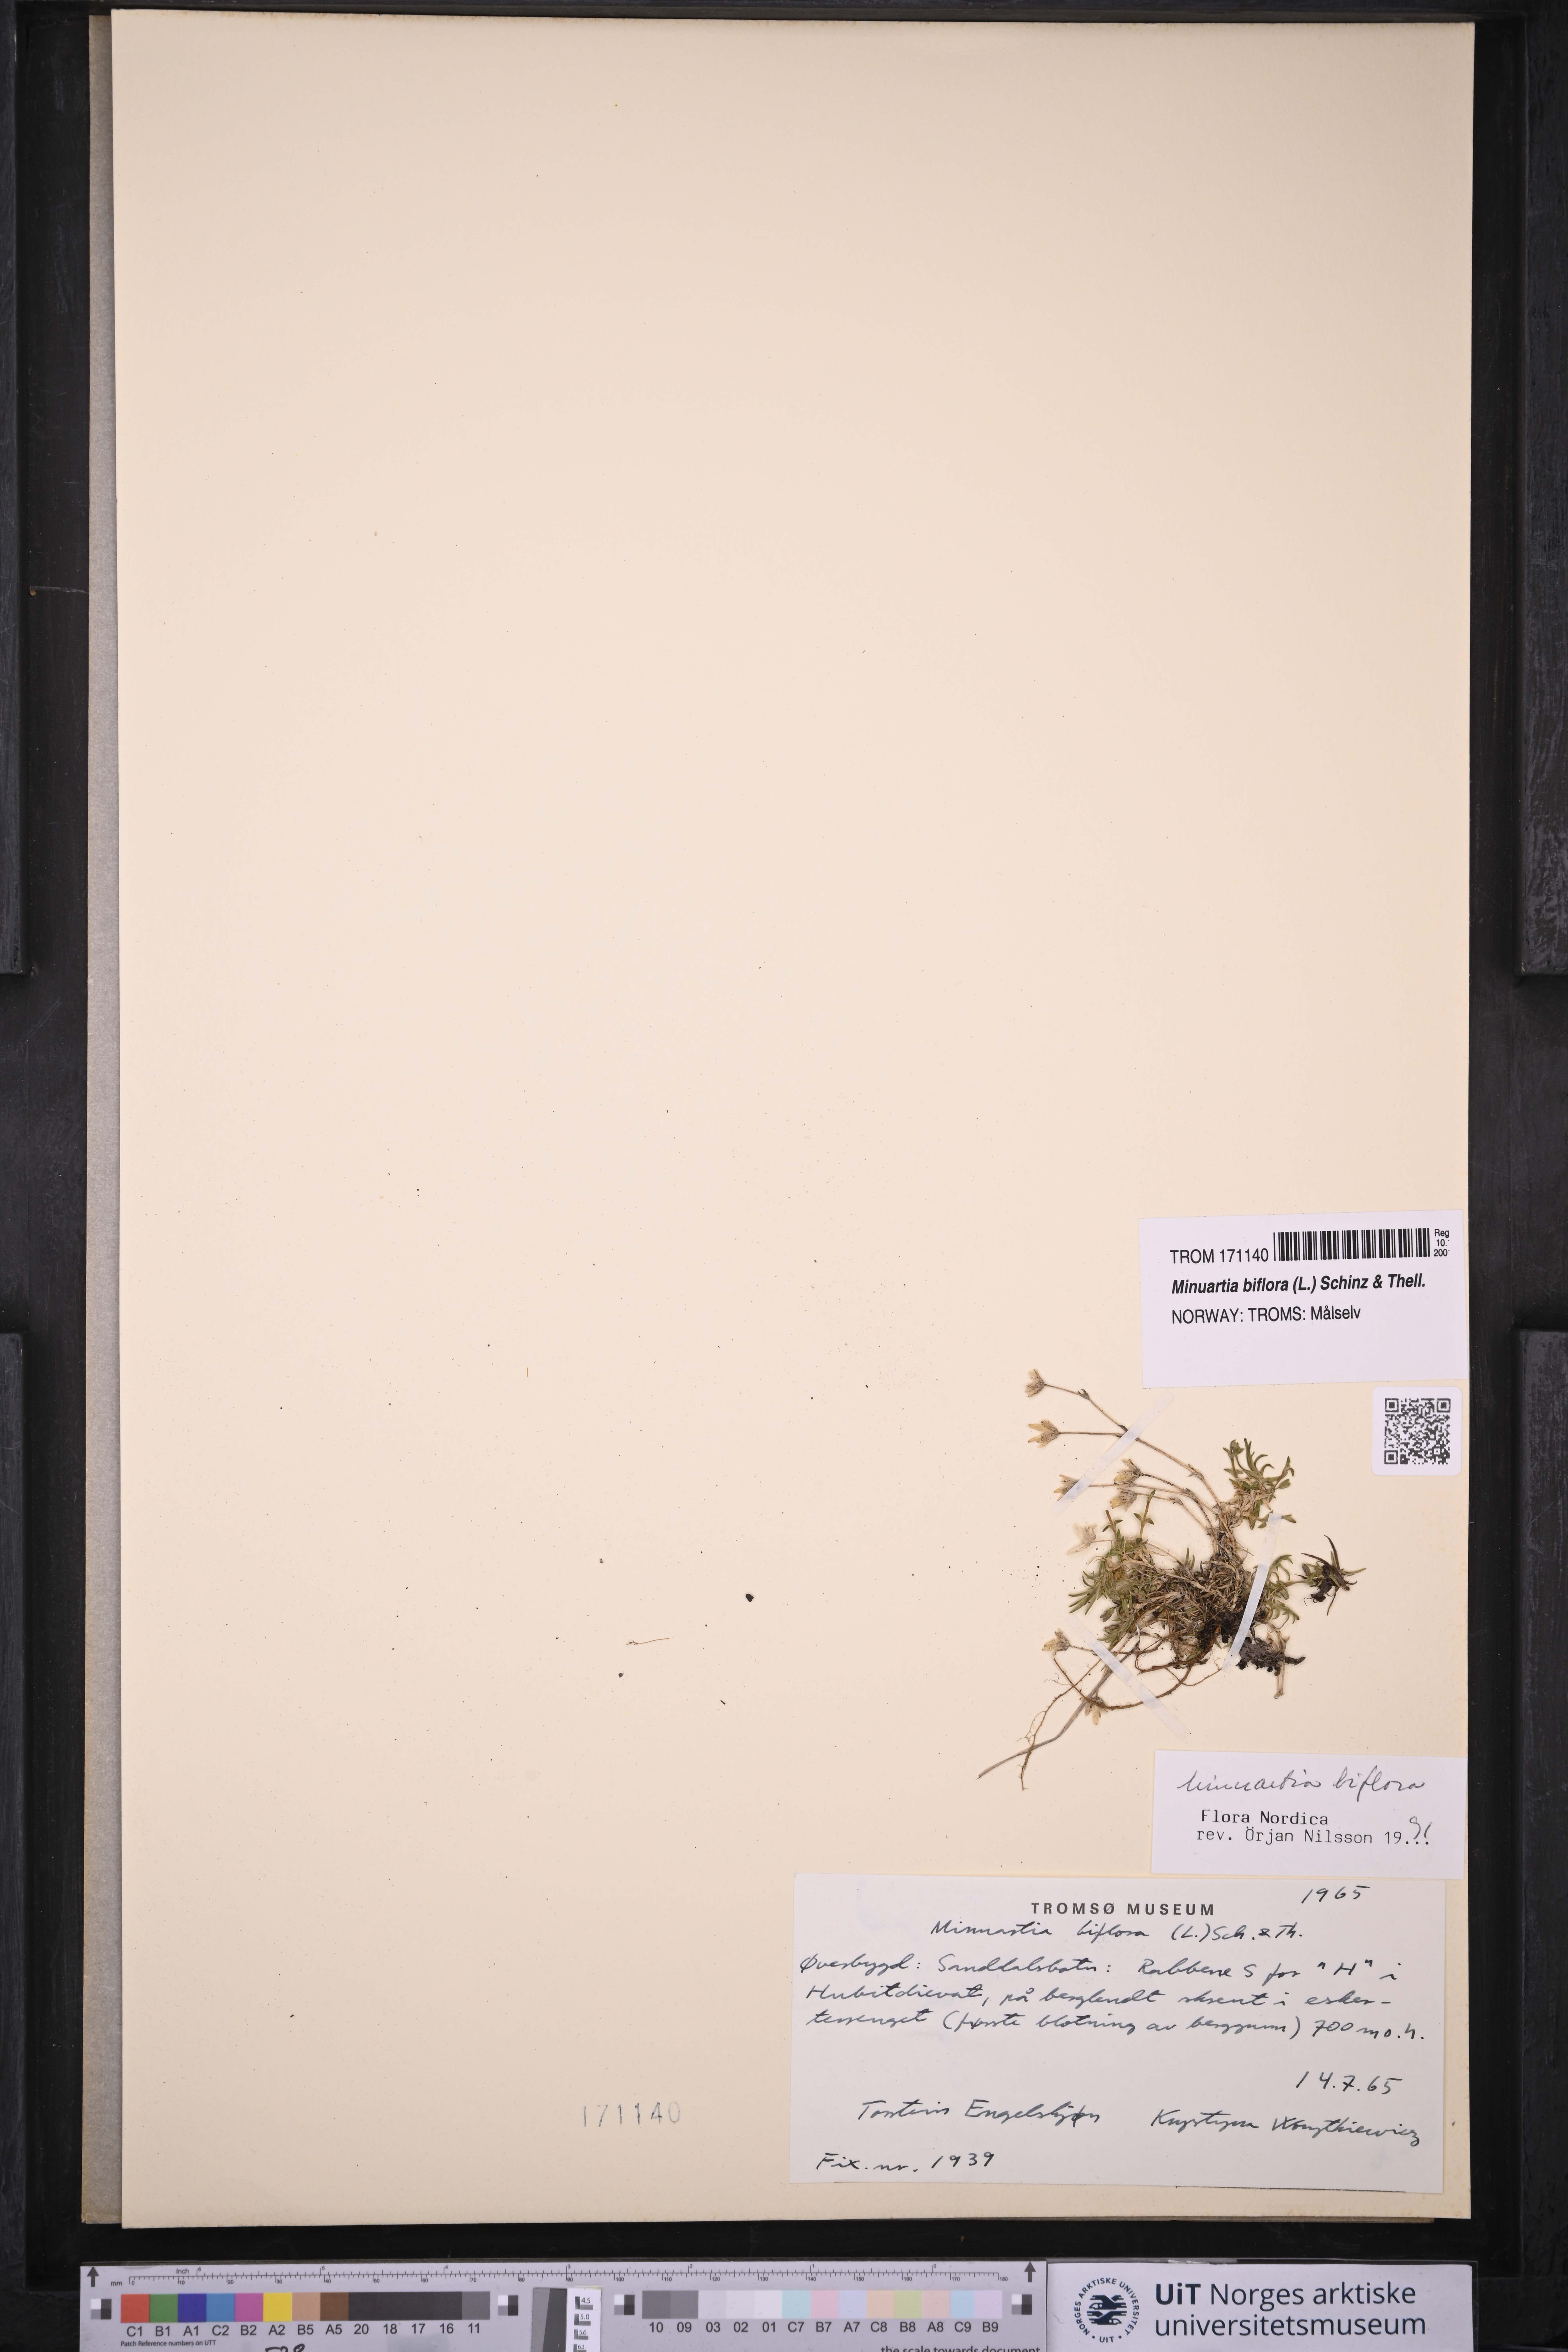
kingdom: Plantae
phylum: Tracheophyta
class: Magnoliopsida
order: Caryophyllales
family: Caryophyllaceae
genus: Cherleria
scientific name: Cherleria biflora
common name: Mountain sandwort
